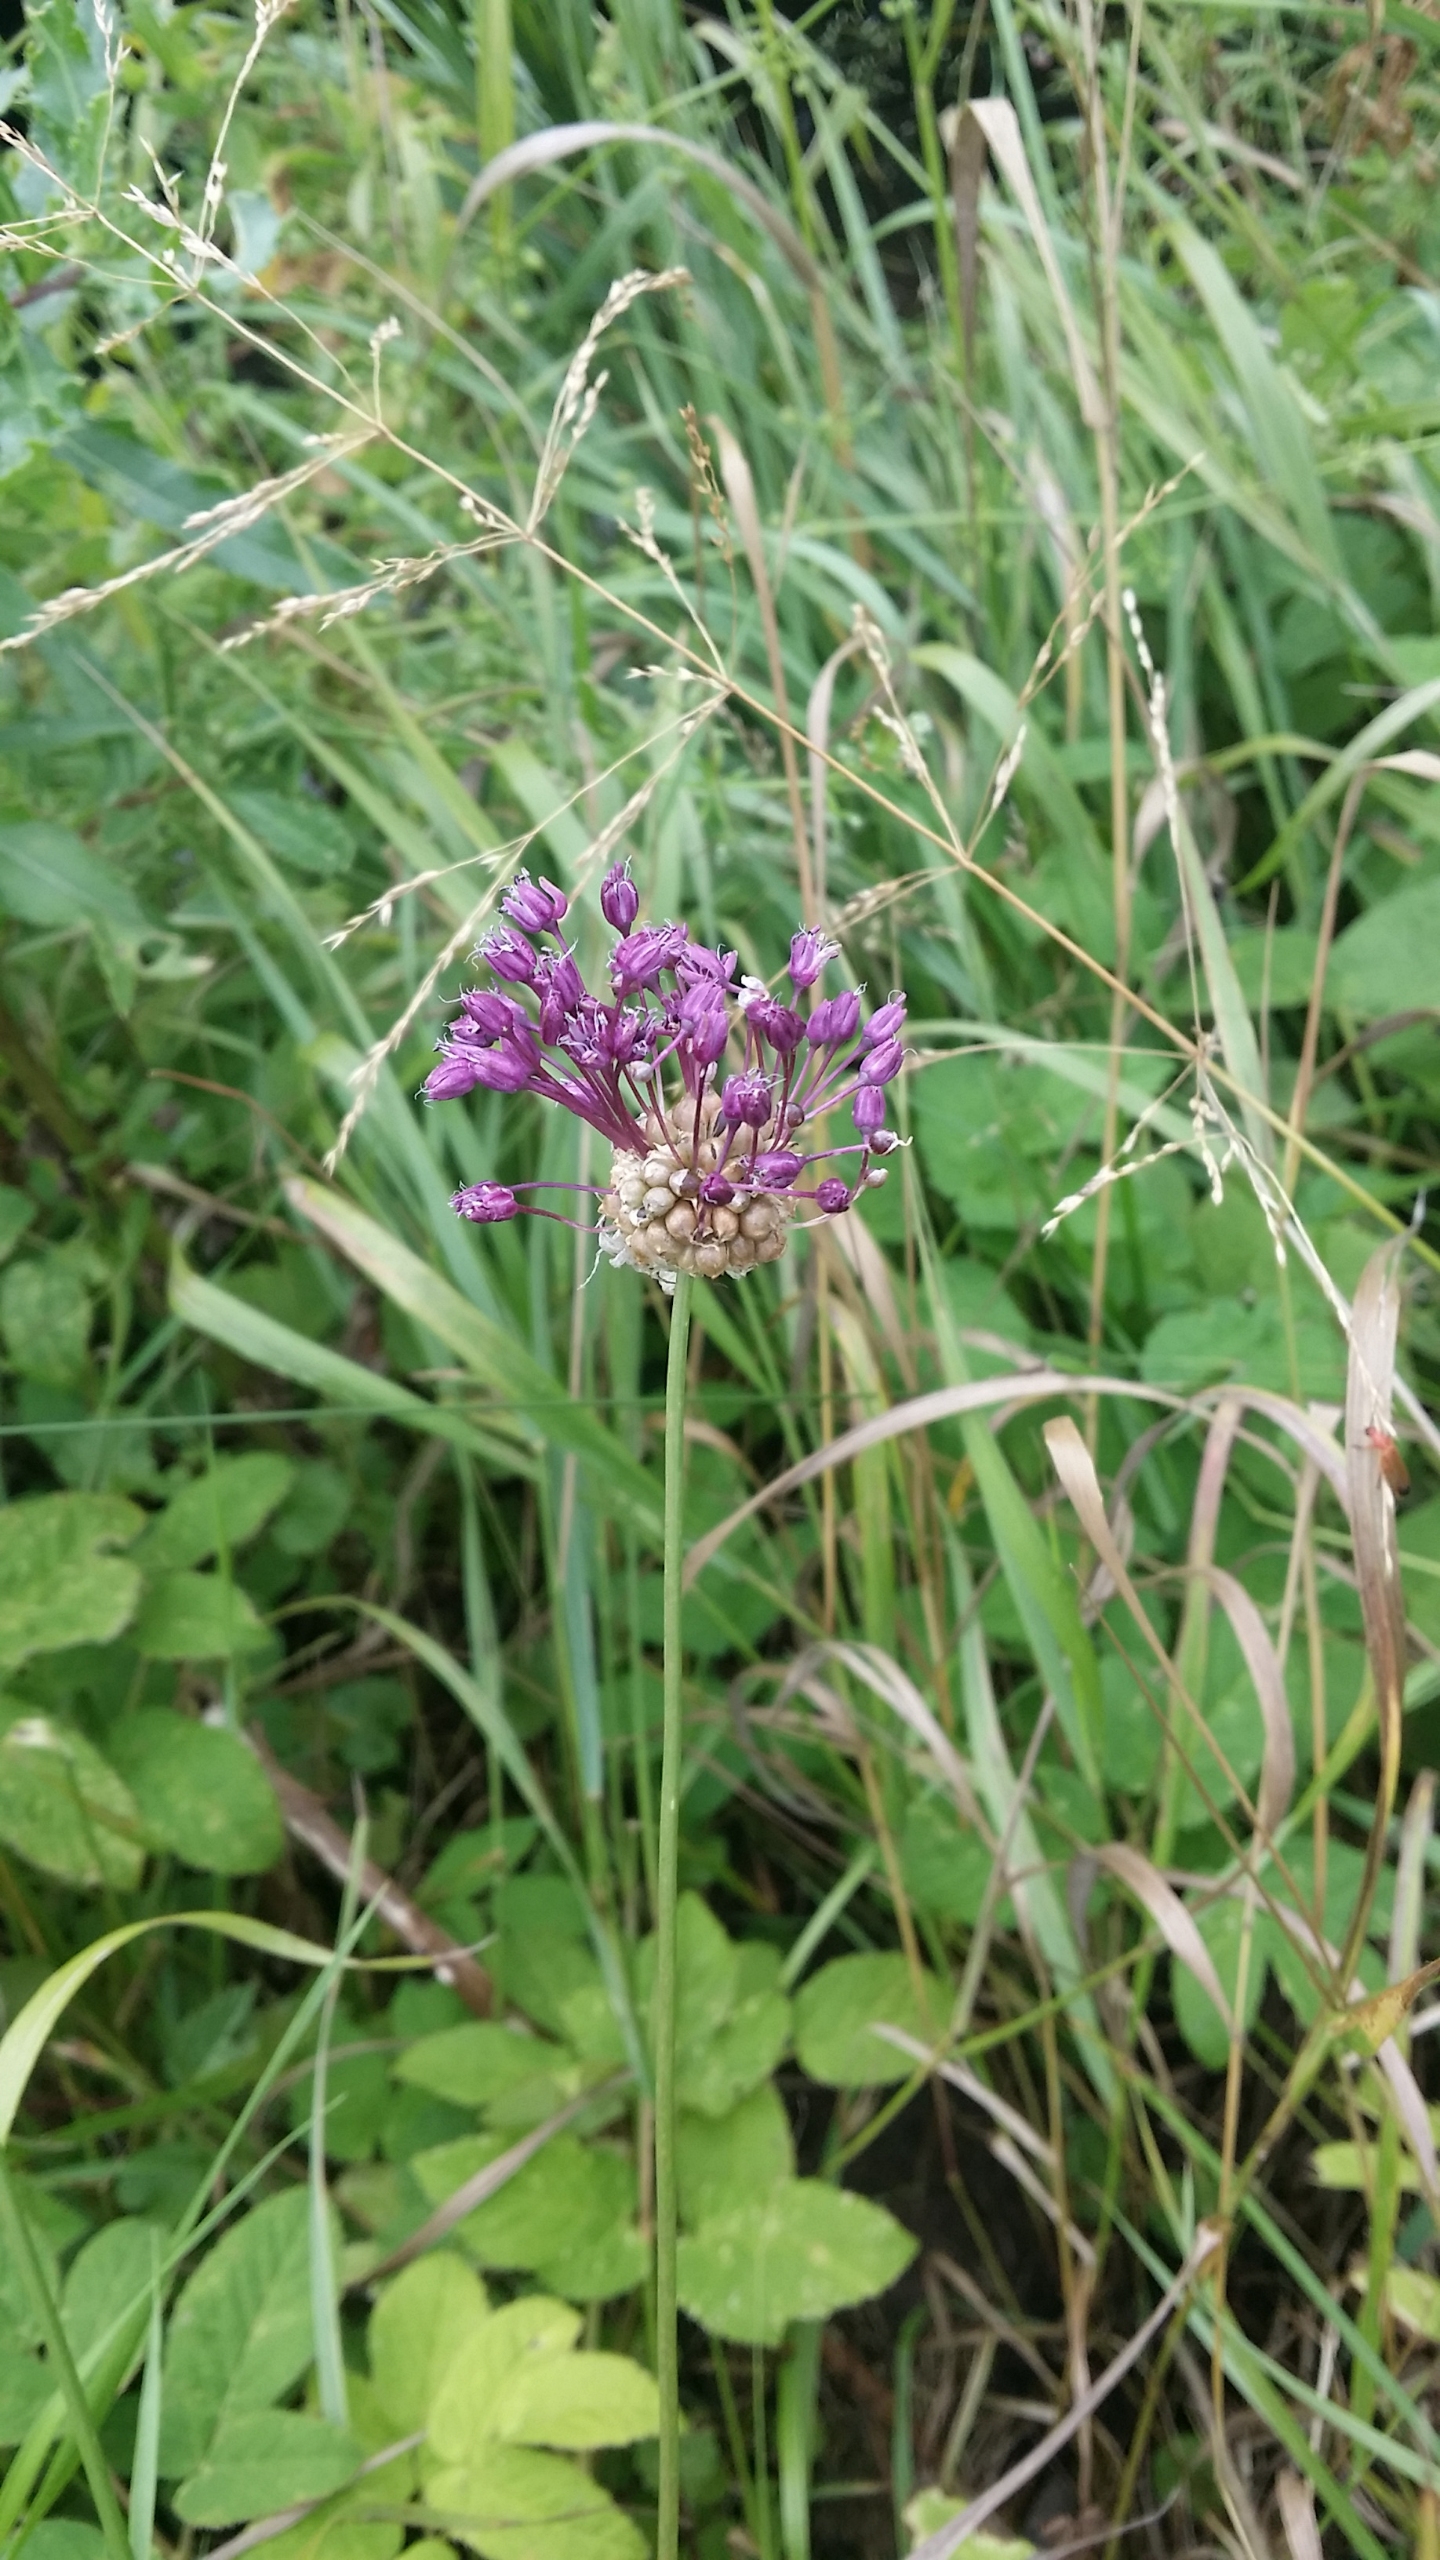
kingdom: Plantae
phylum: Tracheophyta
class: Liliopsida
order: Asparagales
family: Amaryllidaceae
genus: Allium
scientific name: Allium vineale
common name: Sand-løg
